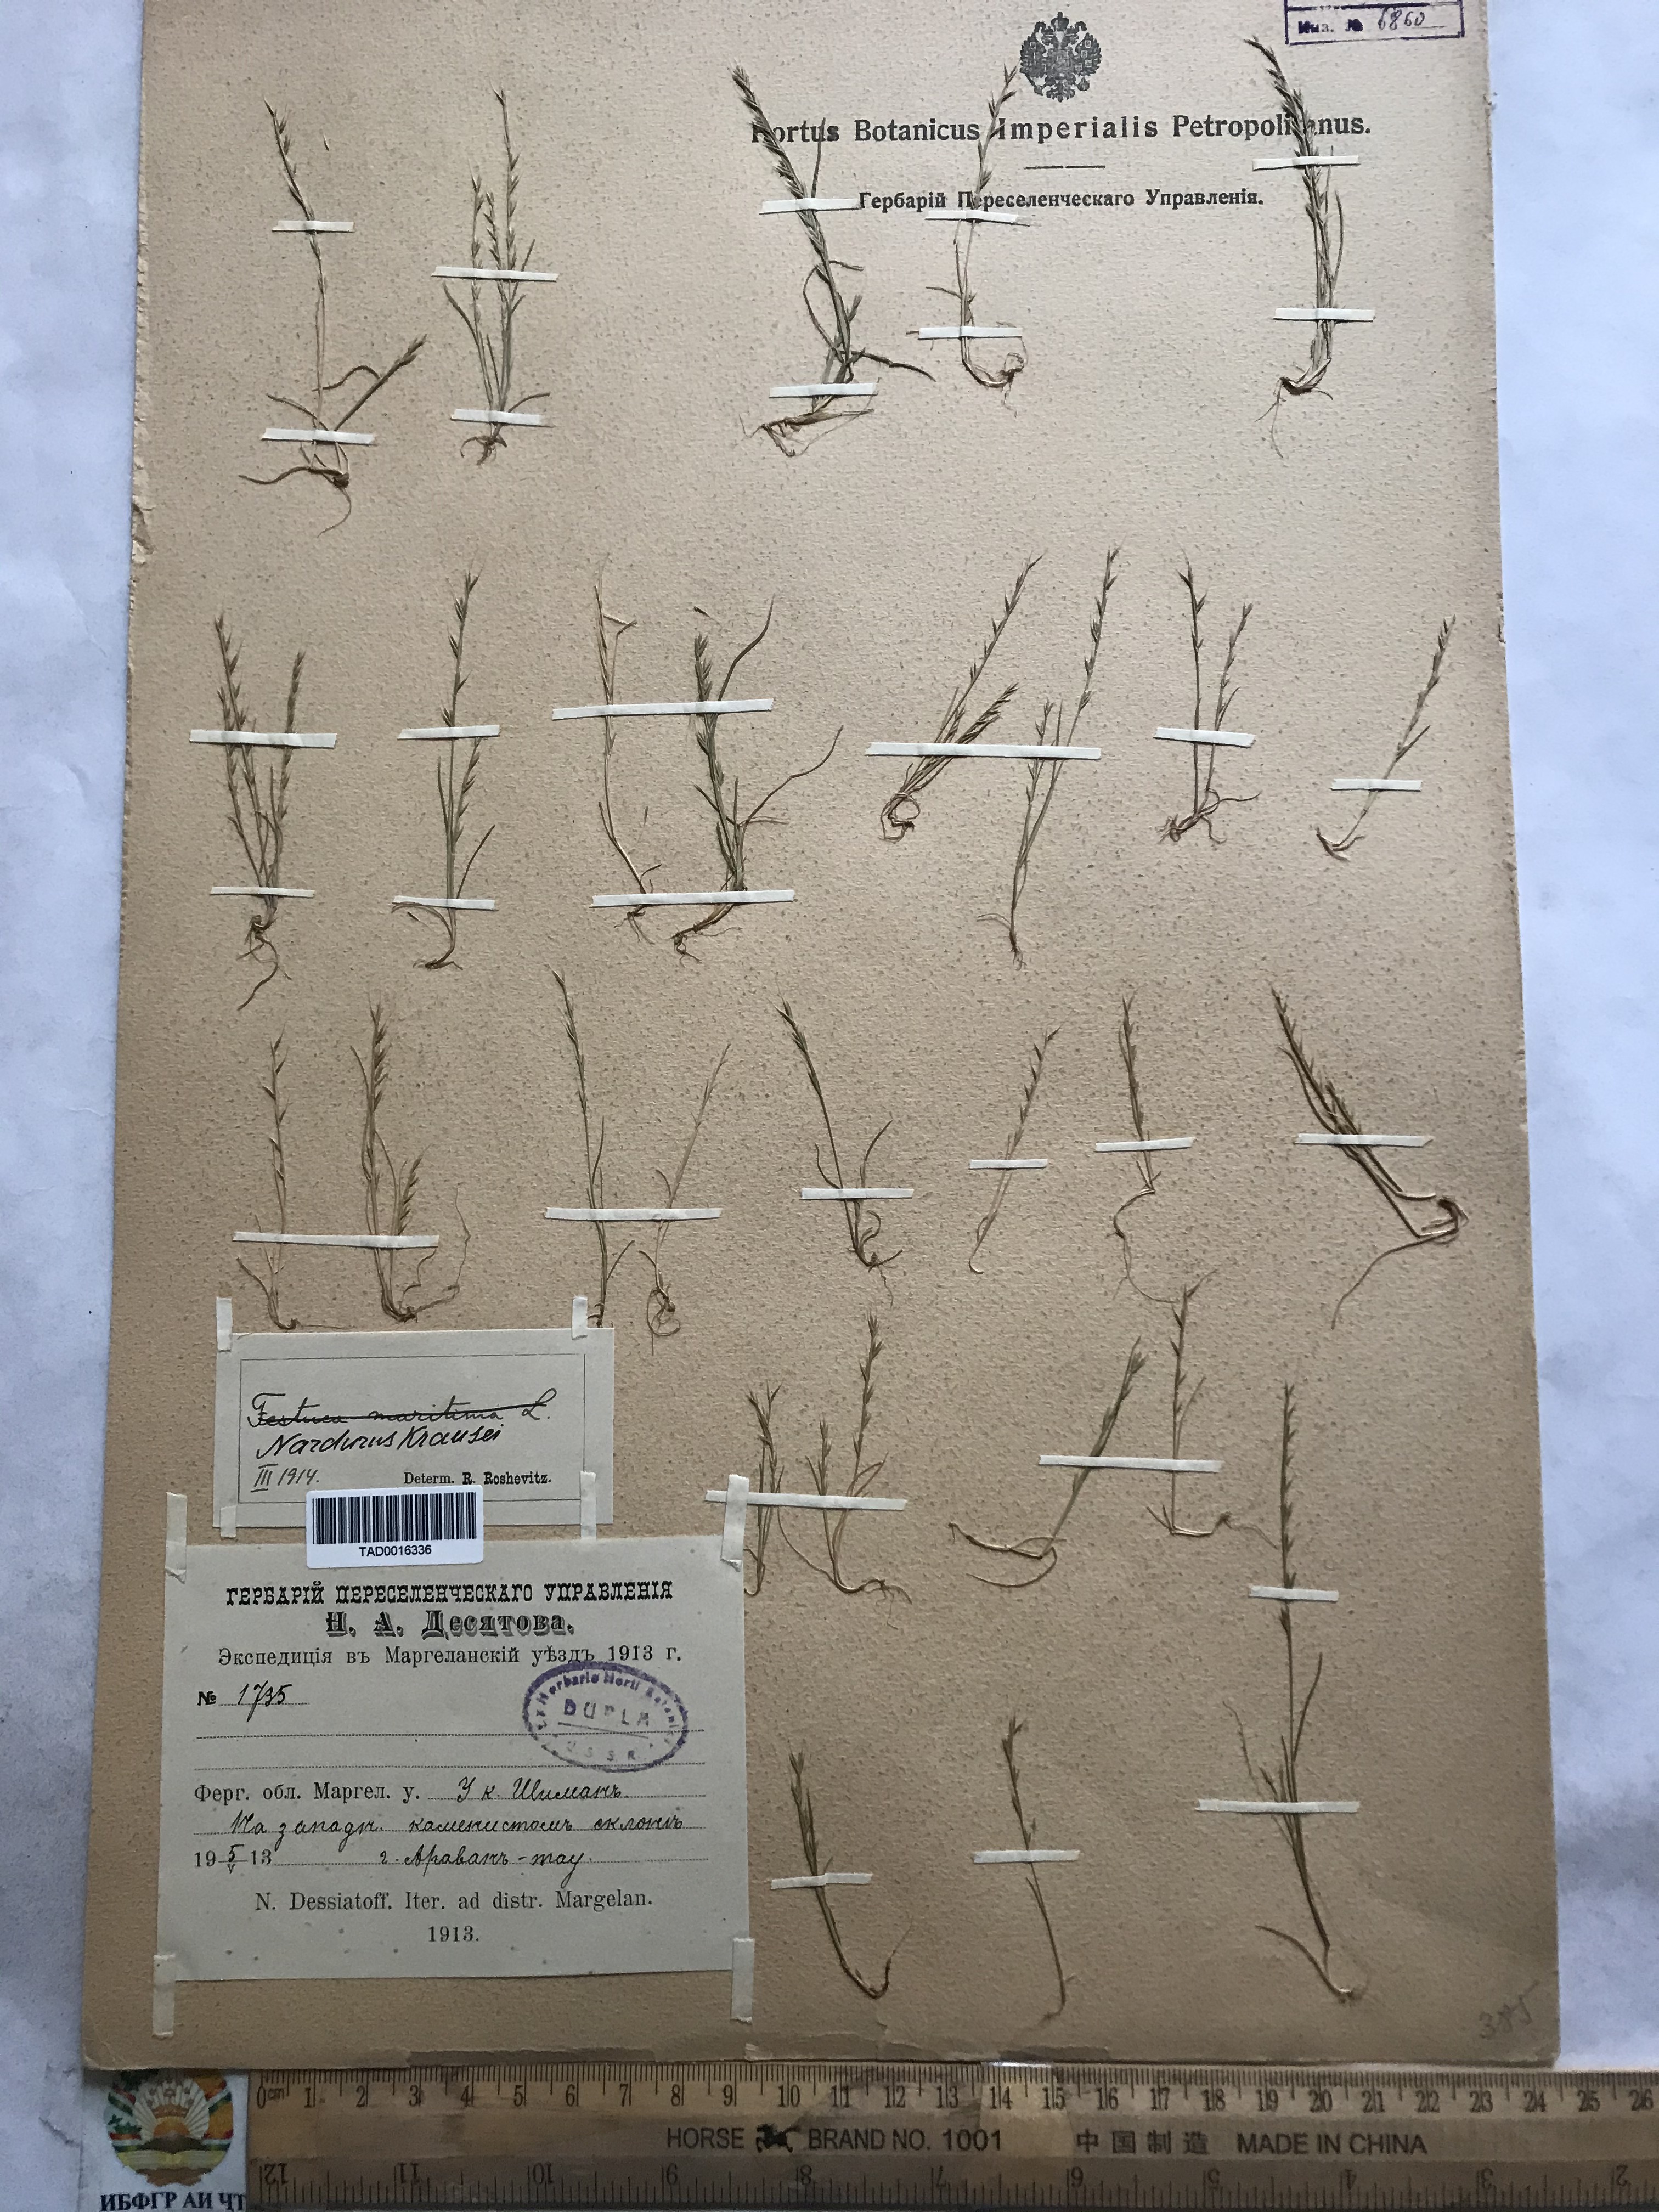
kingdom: Plantae
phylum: Tracheophyta
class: Liliopsida
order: Poales
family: Poaceae
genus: Festuca
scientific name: Festuca maritima
